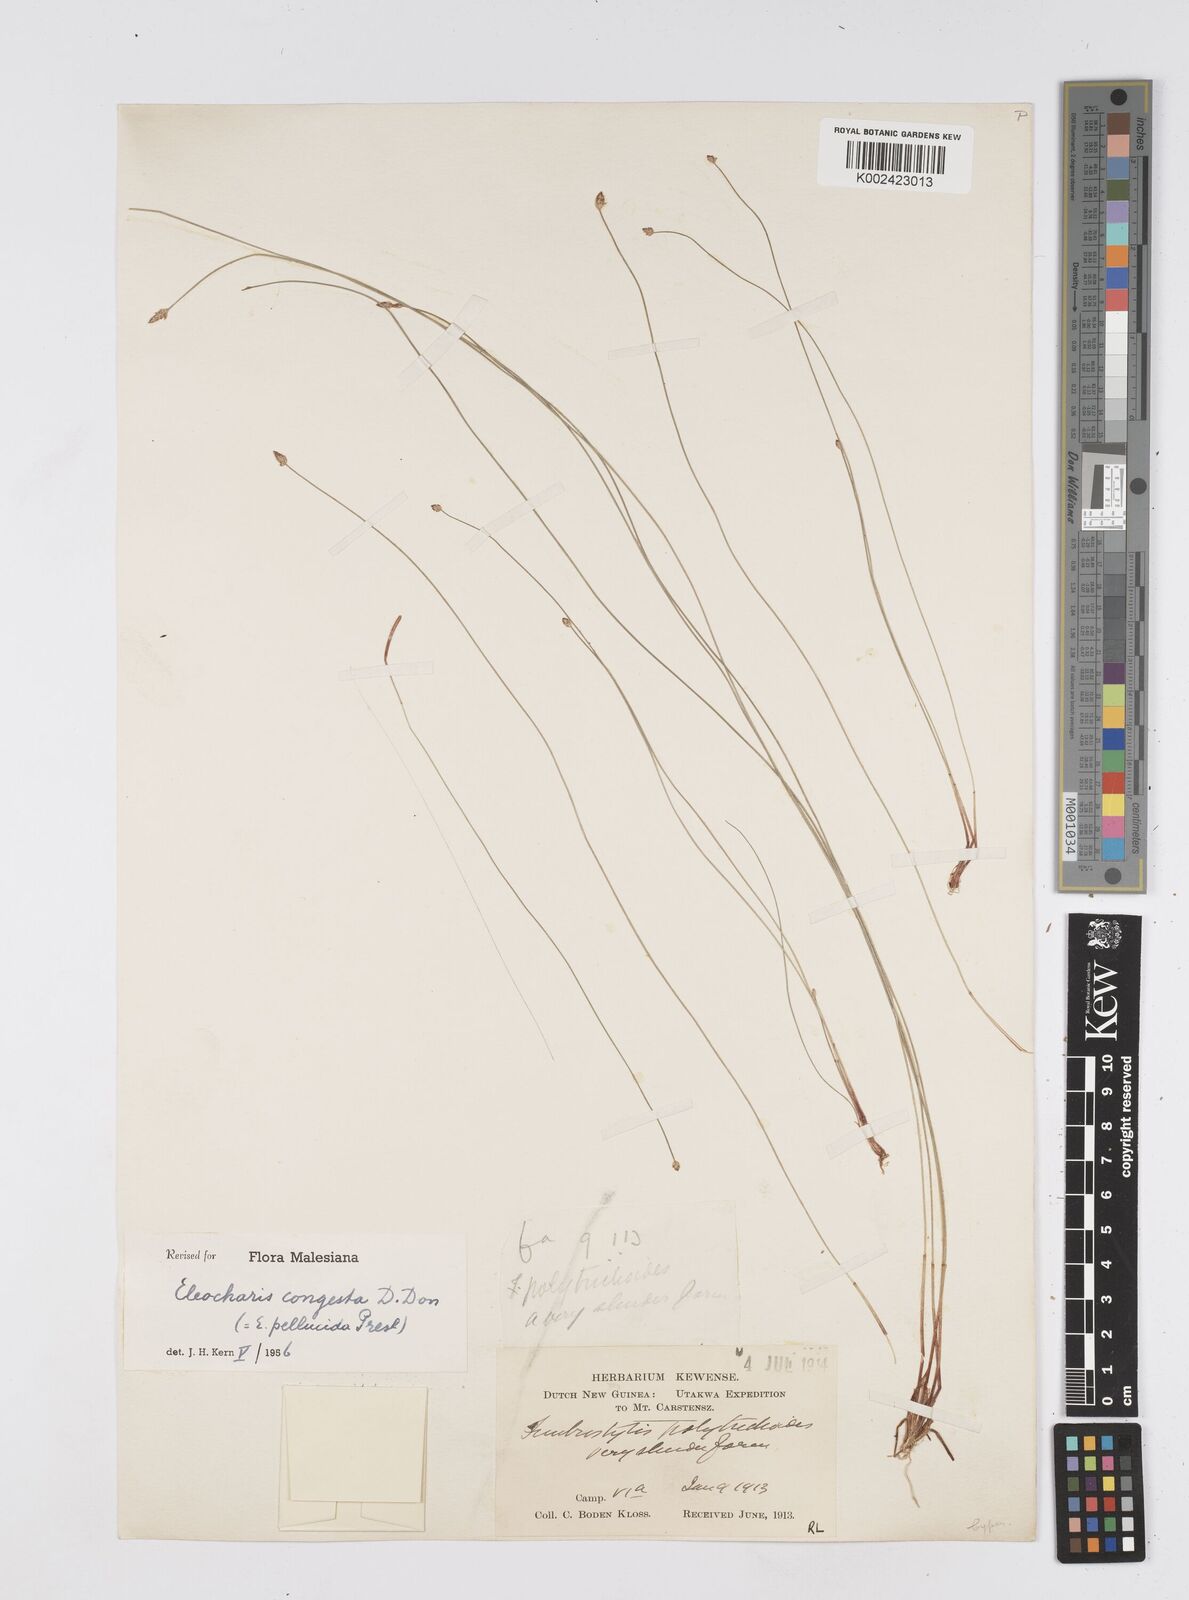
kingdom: Plantae
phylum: Tracheophyta
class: Liliopsida
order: Poales
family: Cyperaceae
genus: Eleocharis
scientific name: Eleocharis pellucida
